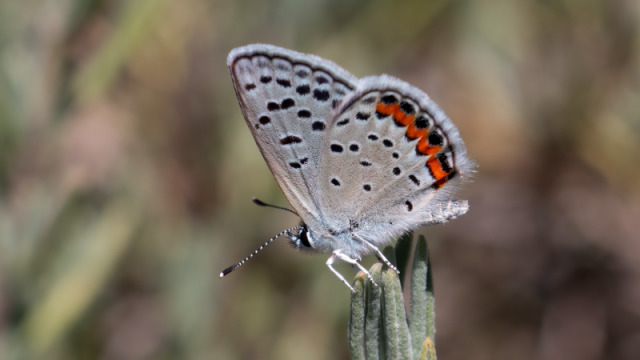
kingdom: Animalia
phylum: Arthropoda
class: Insecta
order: Lepidoptera
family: Lycaenidae
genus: Plebejus
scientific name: Plebejus acmon
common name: Acmon Blue
